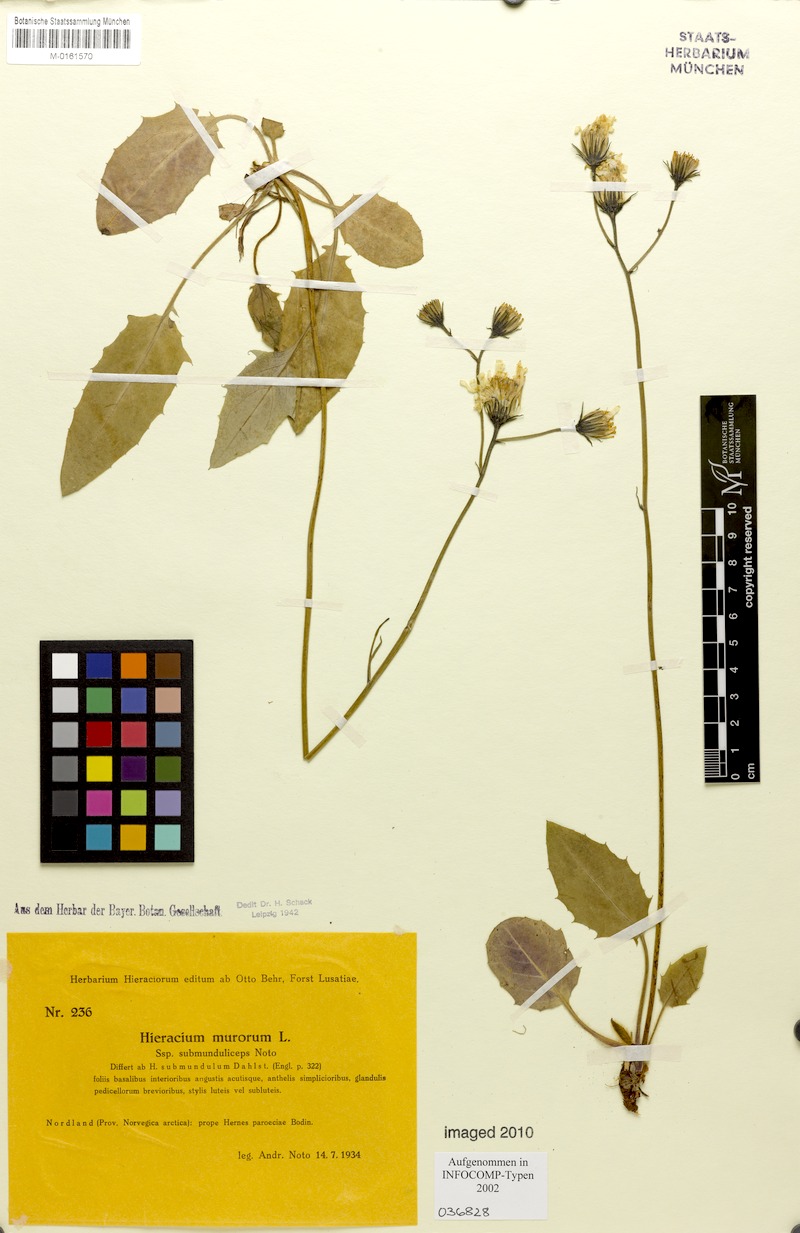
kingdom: Plantae
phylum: Tracheophyta
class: Magnoliopsida
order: Asterales
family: Asteraceae
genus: Hieracium
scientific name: Hieracium murorum
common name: Wall hawkweed
